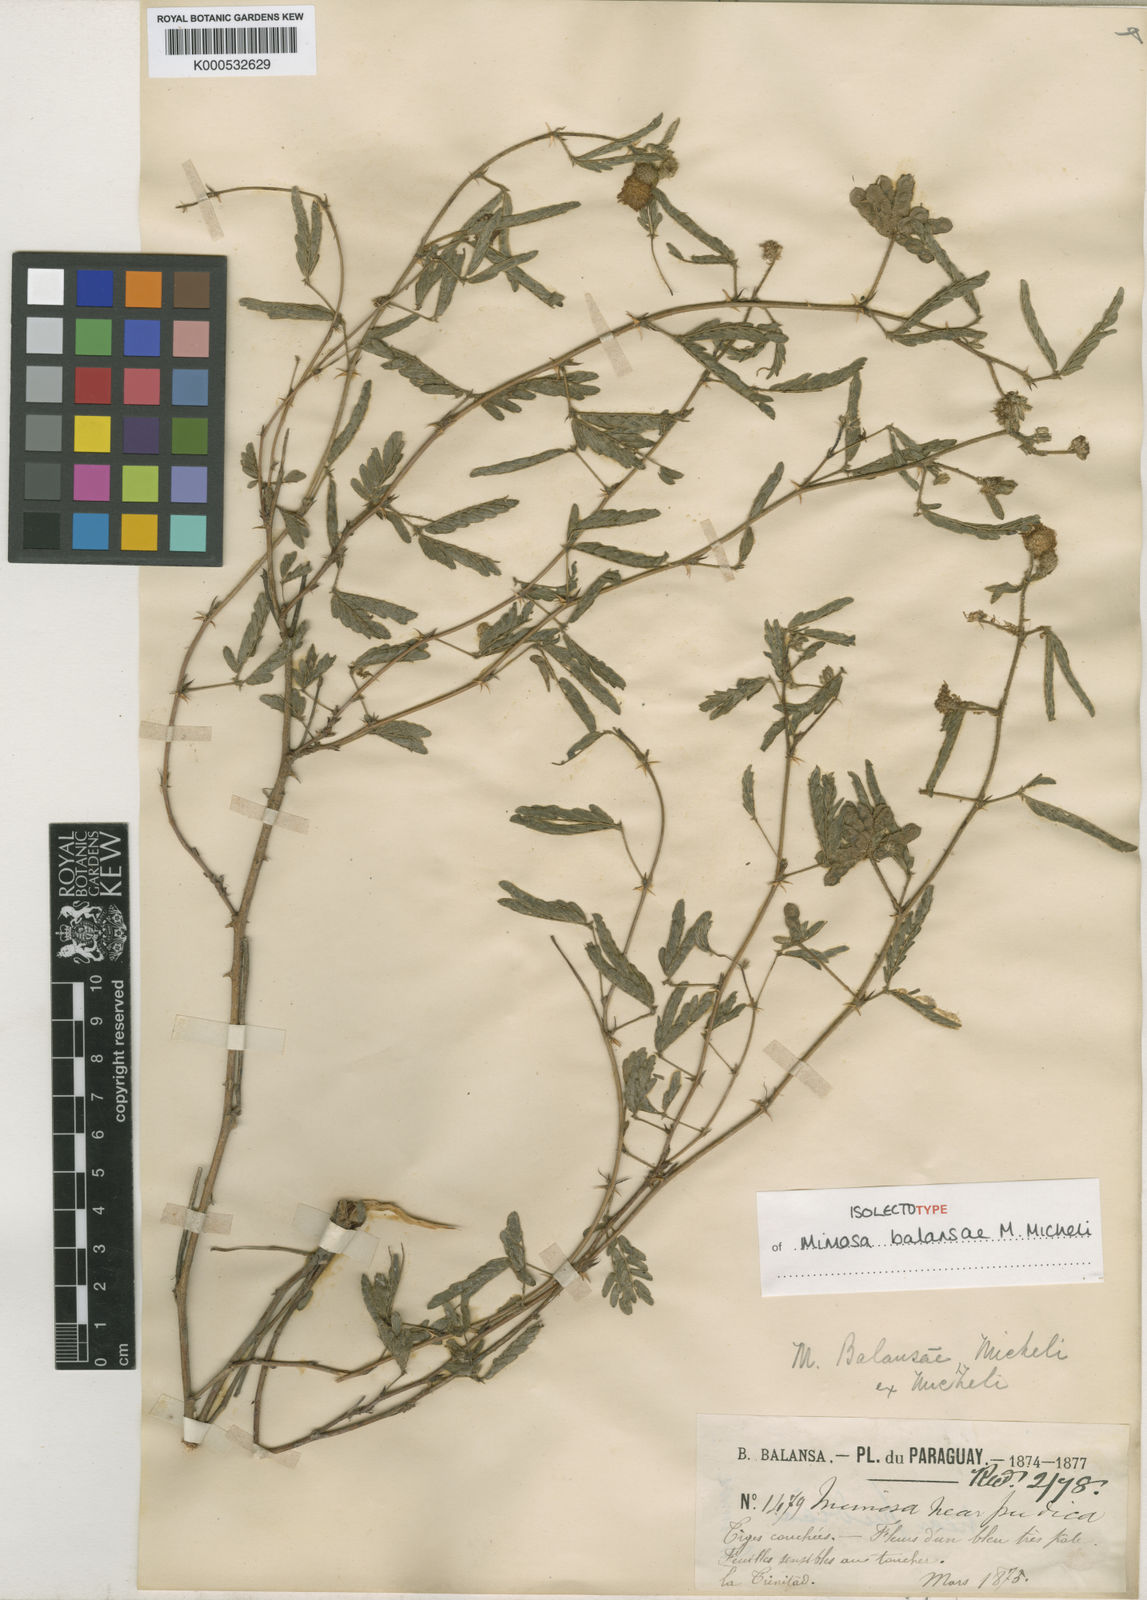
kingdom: Plantae
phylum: Tracheophyta
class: Magnoliopsida
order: Fabales
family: Fabaceae
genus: Mimosa
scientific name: Mimosa balansae
